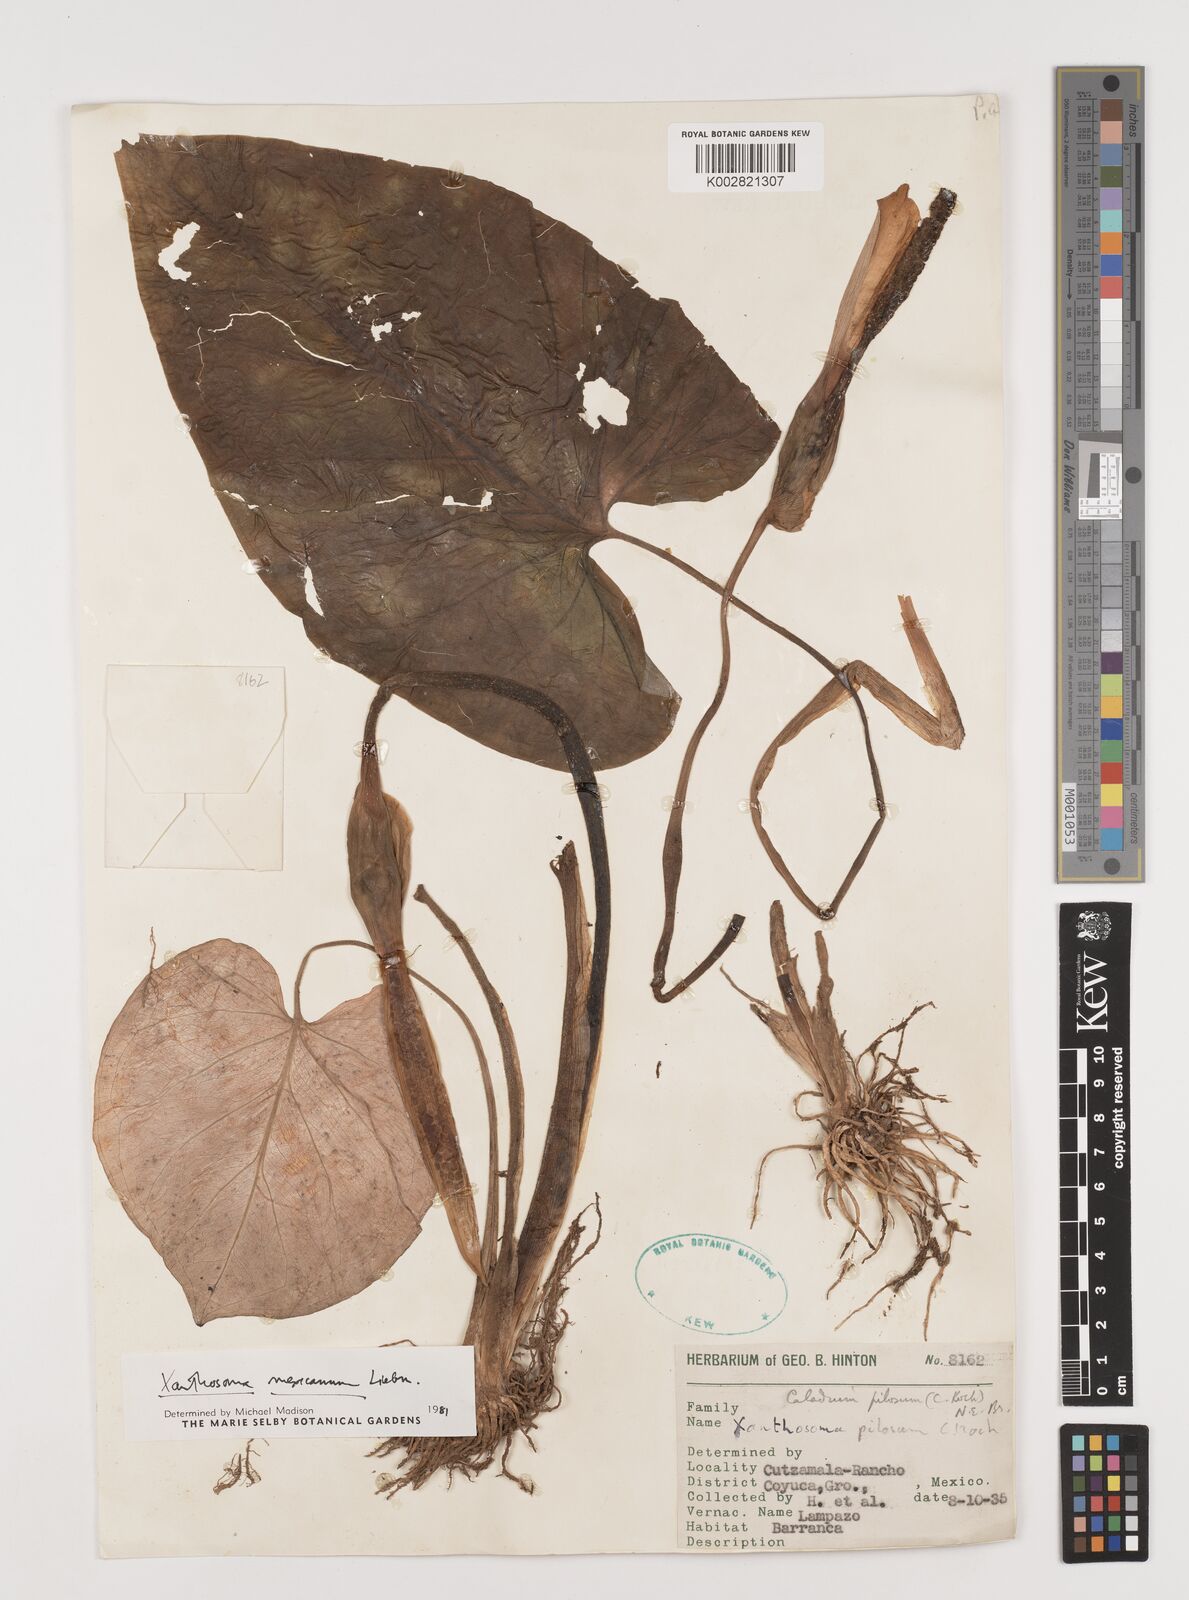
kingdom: Plantae
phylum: Tracheophyta
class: Liliopsida
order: Alismatales
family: Araceae
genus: Xanthosoma
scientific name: Xanthosoma mexicanum
